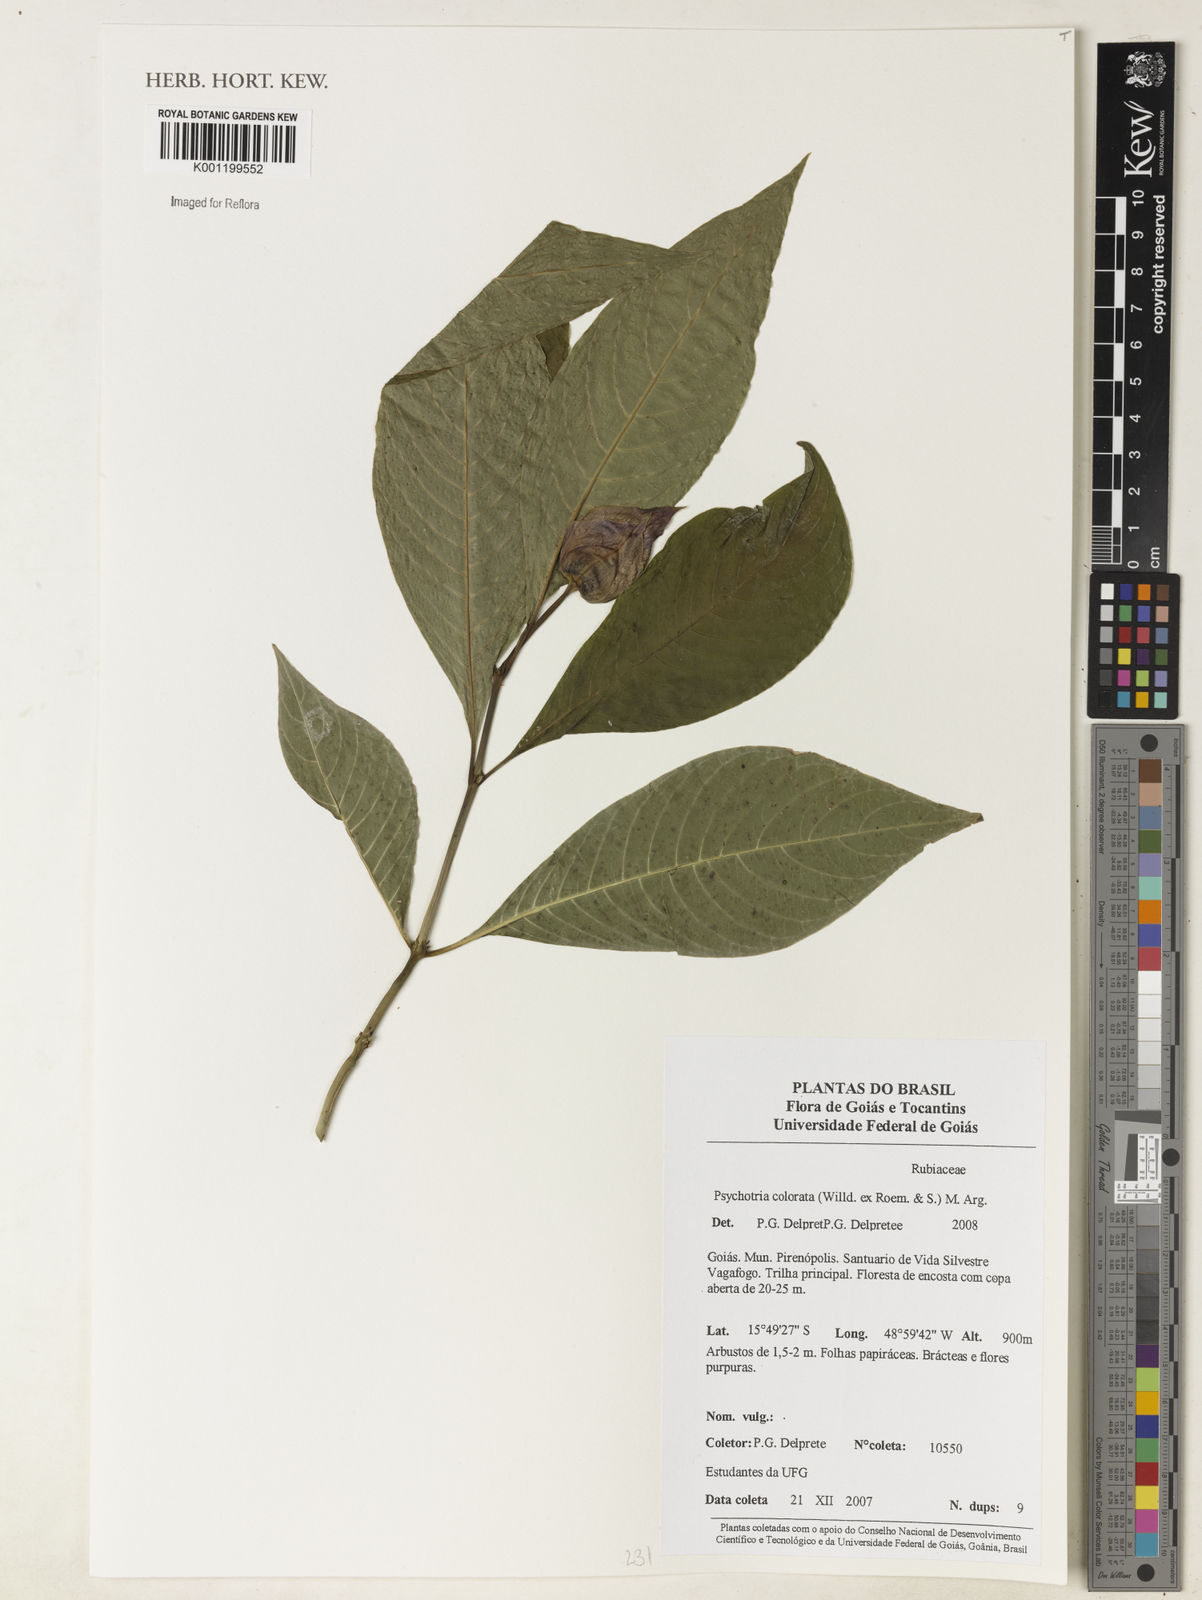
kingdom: Plantae
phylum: Tracheophyta
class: Magnoliopsida
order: Gentianales
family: Rubiaceae
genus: Psychotria
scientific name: Psychotria
